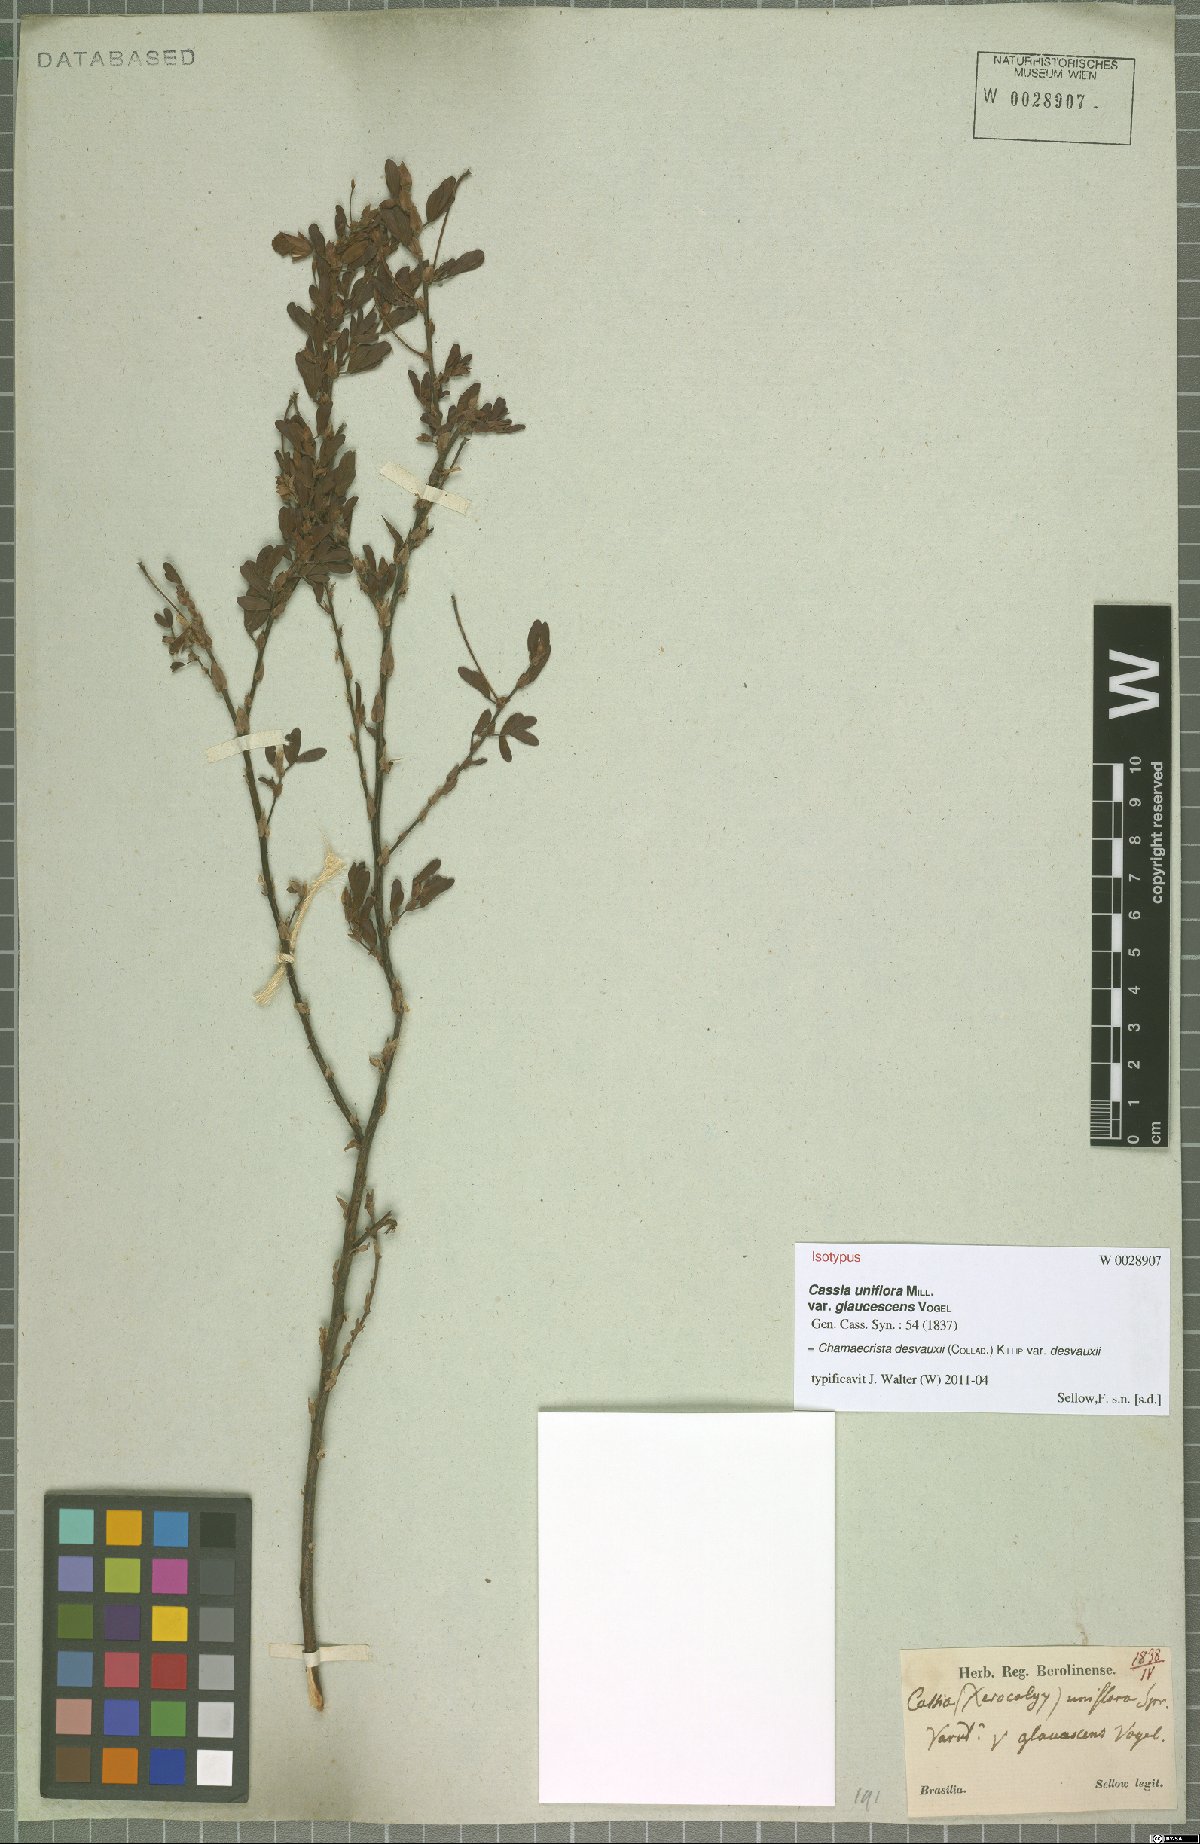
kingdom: Plantae
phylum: Tracheophyta
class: Magnoliopsida
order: Fabales
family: Fabaceae
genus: Chamaecrista
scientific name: Chamaecrista desvauxii
